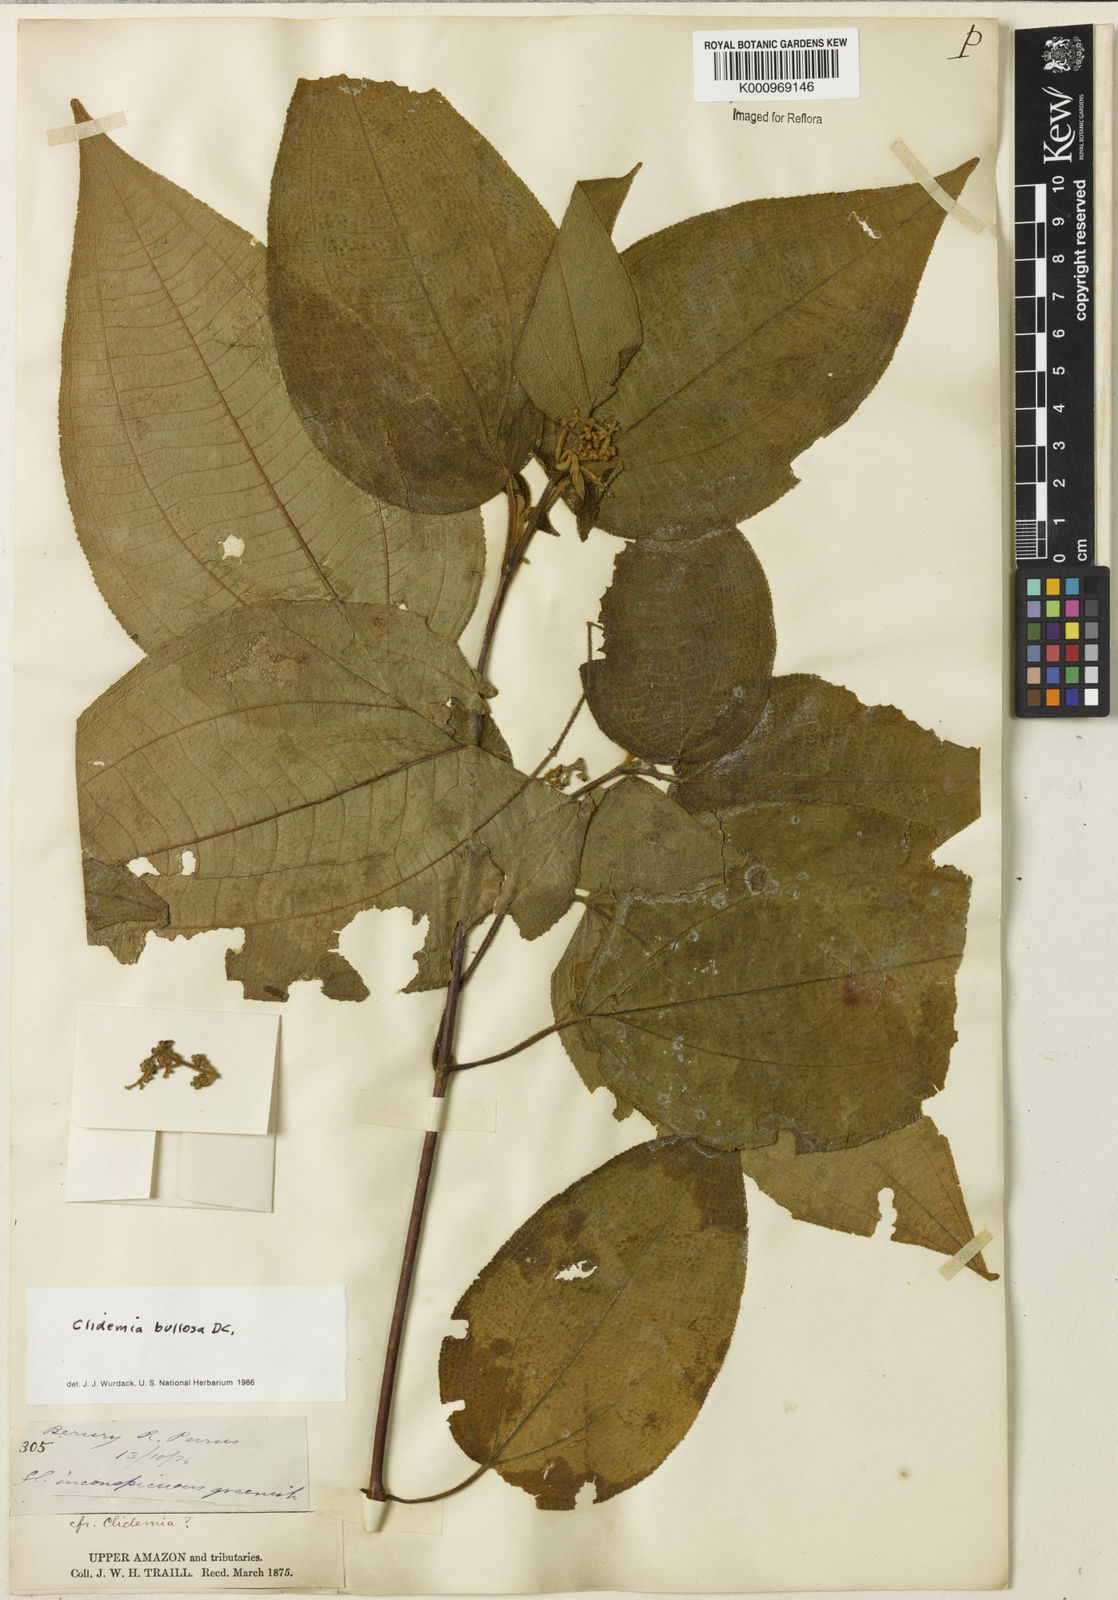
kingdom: Plantae
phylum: Tracheophyta
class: Magnoliopsida
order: Myrtales
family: Melastomataceae
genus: Miconia
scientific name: Miconia biserrata
